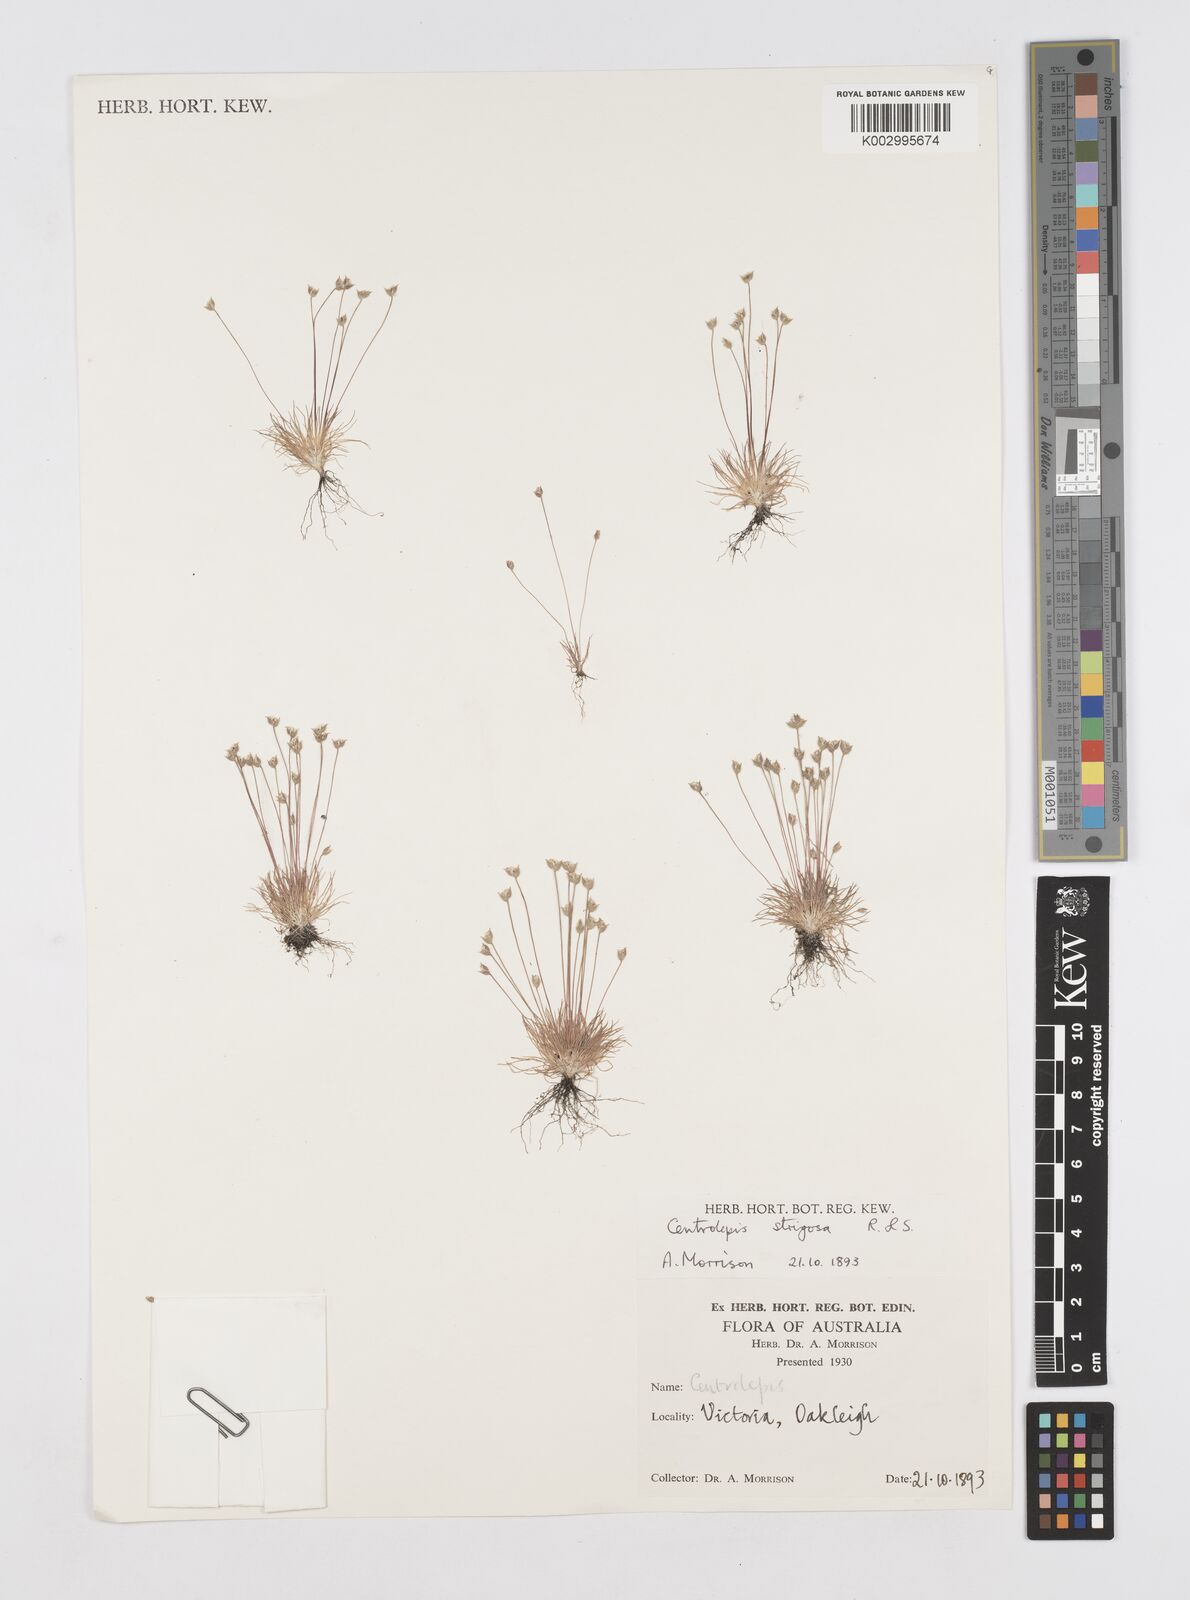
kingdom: Plantae
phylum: Tracheophyta
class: Liliopsida
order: Poales
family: Restionaceae
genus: Centrolepis
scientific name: Centrolepis strigosa
